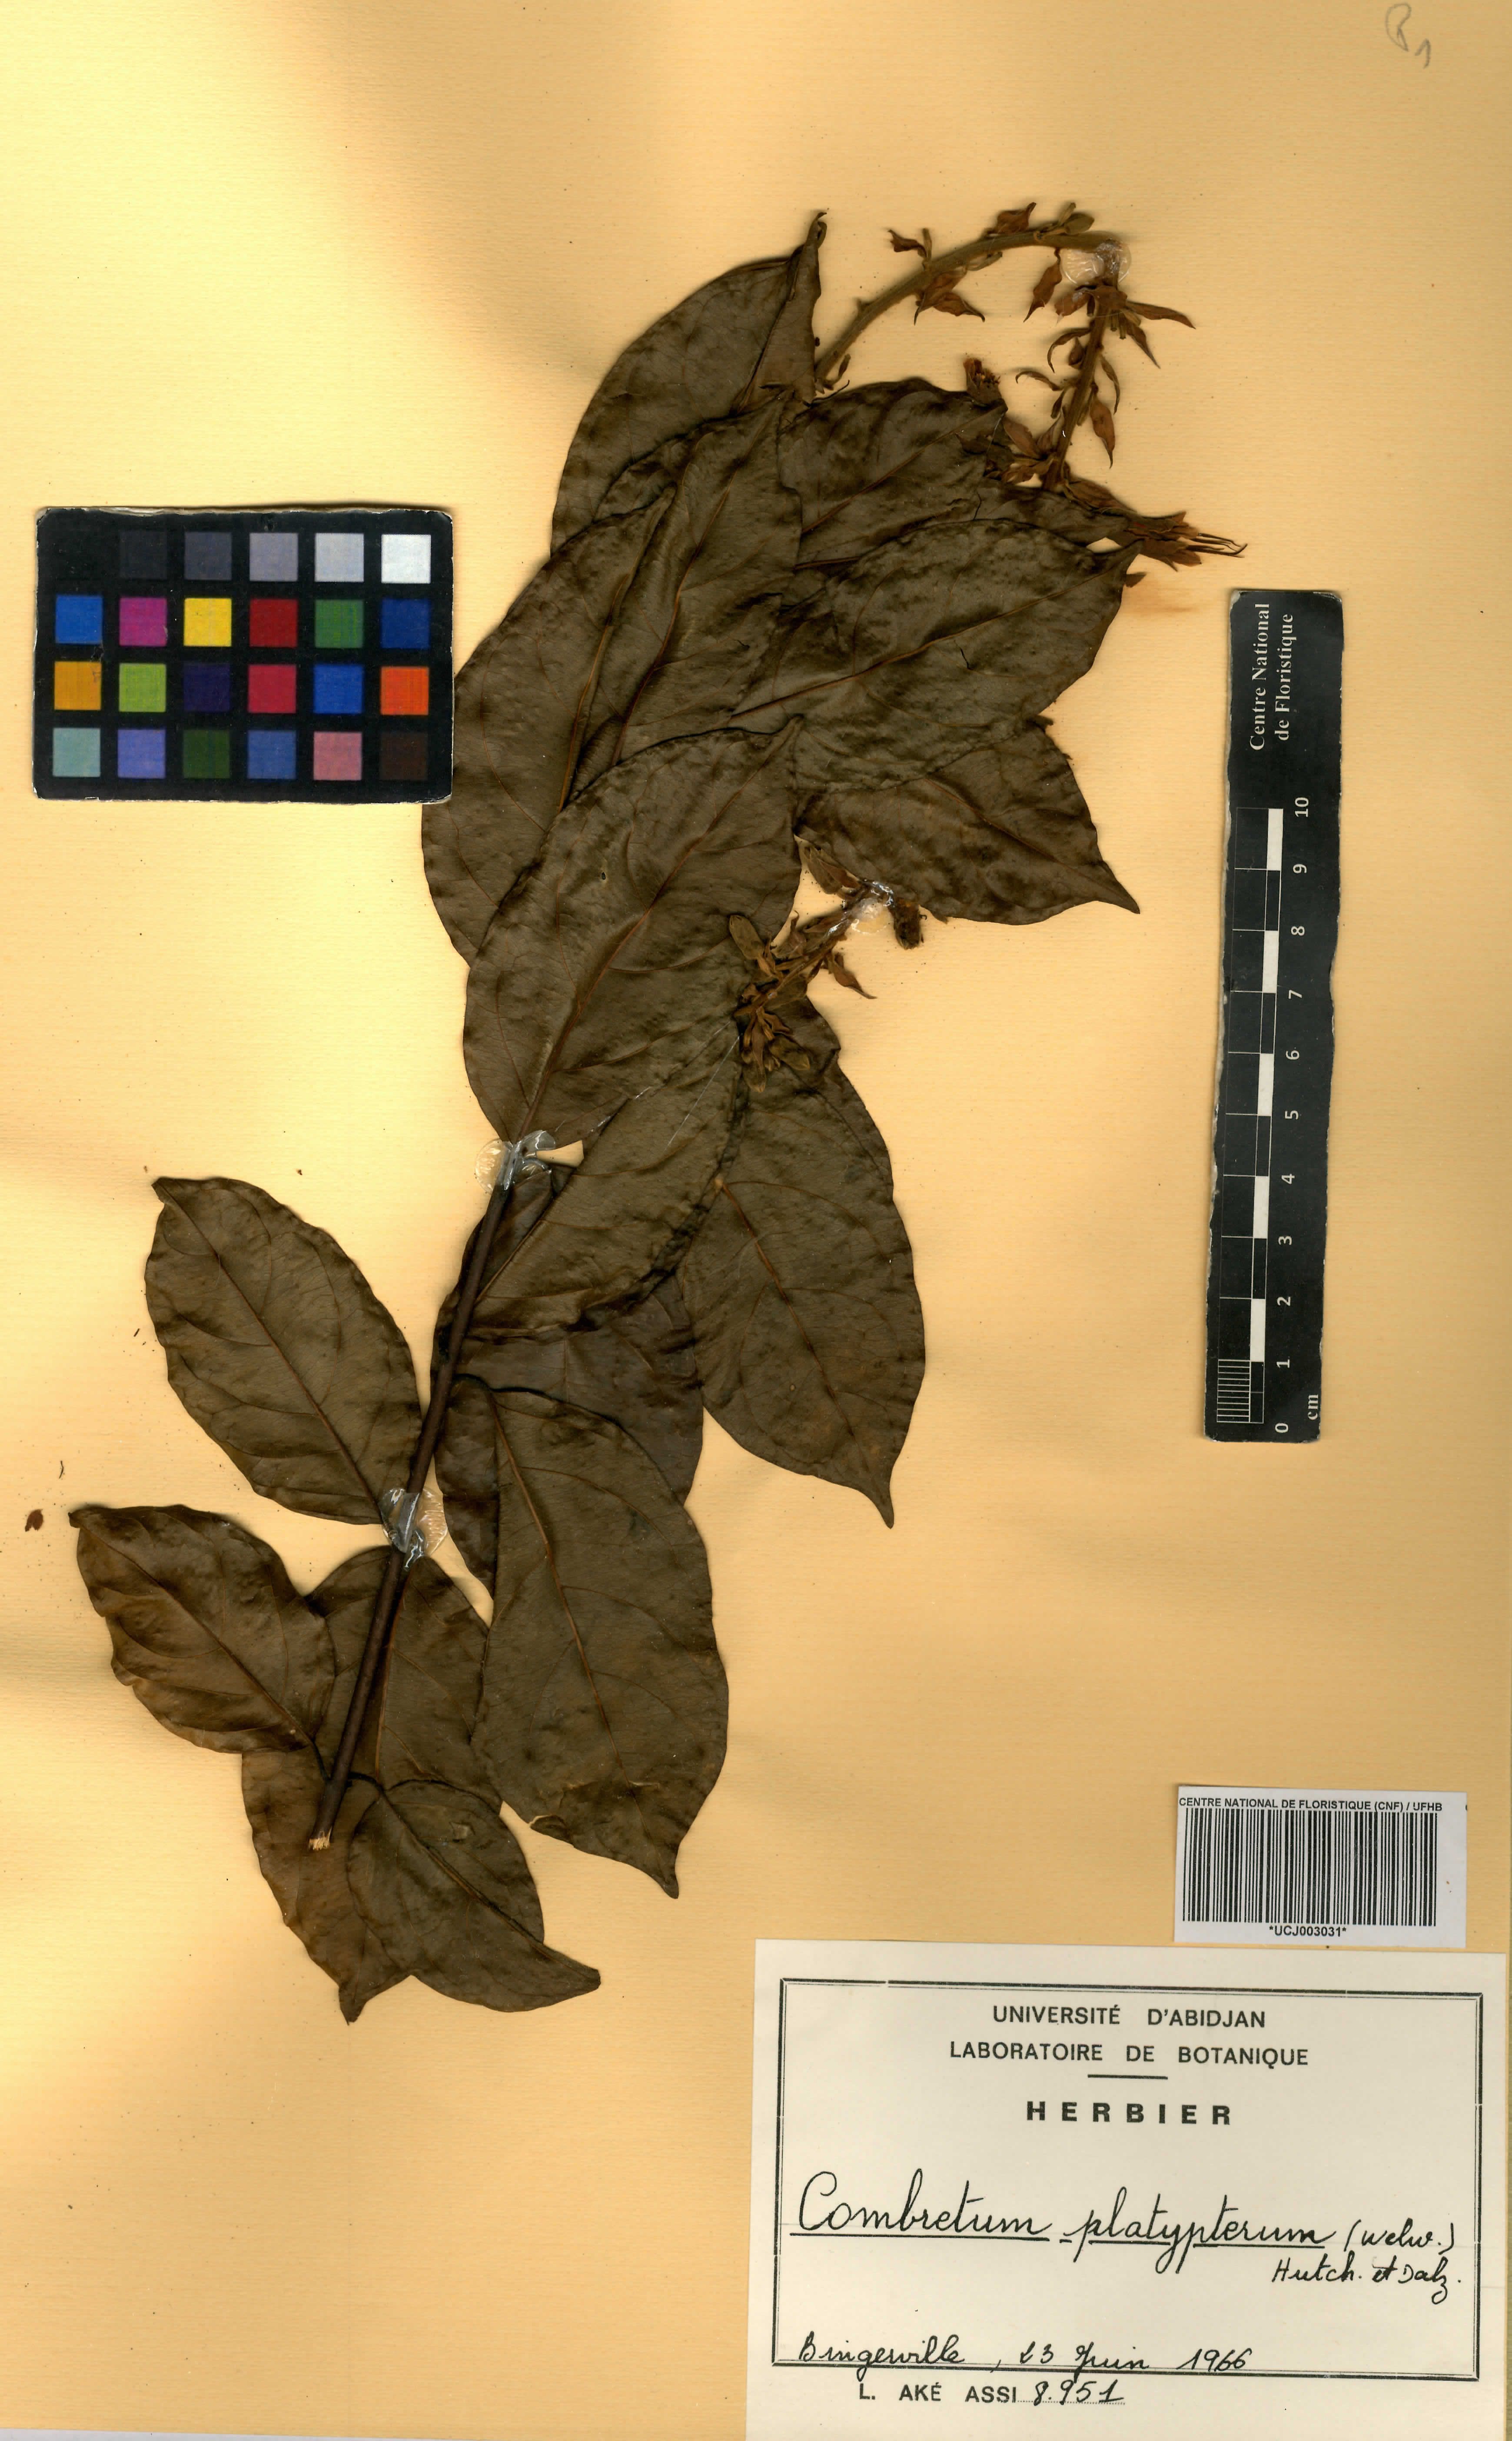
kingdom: Plantae
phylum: Tracheophyta
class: Magnoliopsida
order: Myrtales
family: Combretaceae
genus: Combretum
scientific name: Combretum platypterum
